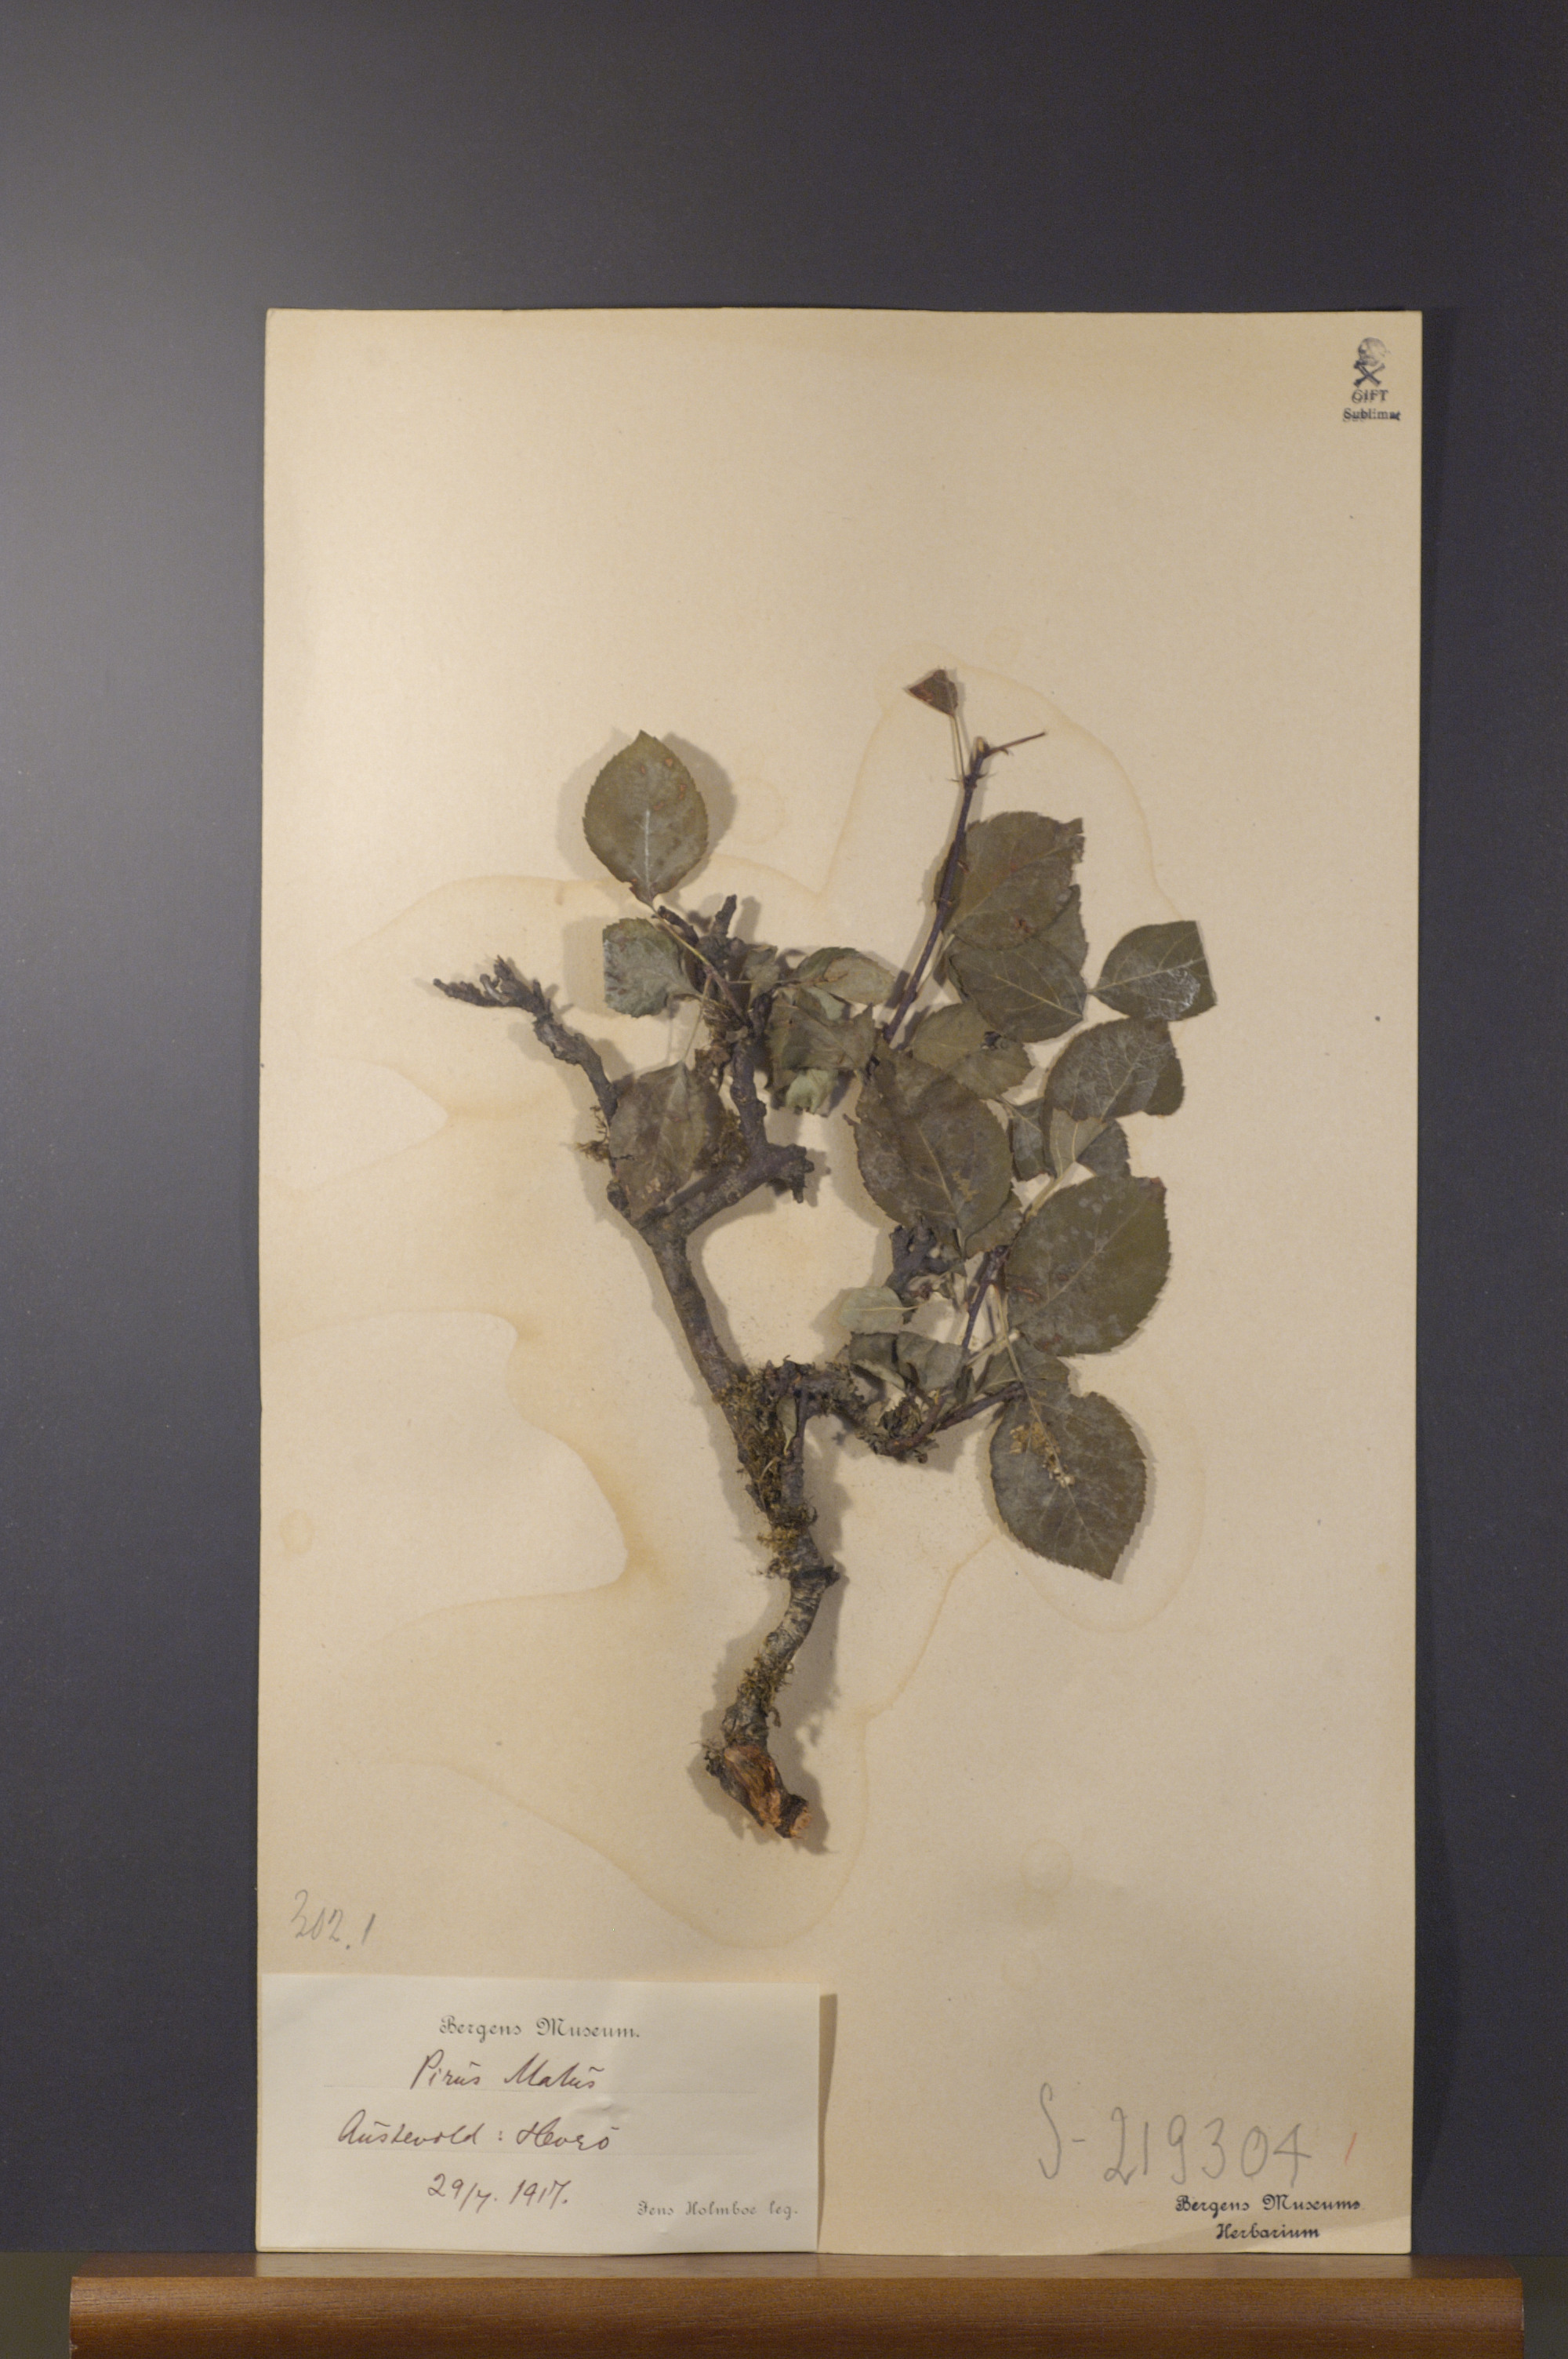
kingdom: Plantae
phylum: Tracheophyta
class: Magnoliopsida
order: Rosales
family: Rosaceae
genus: Malus
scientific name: Malus domestica
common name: Apple
